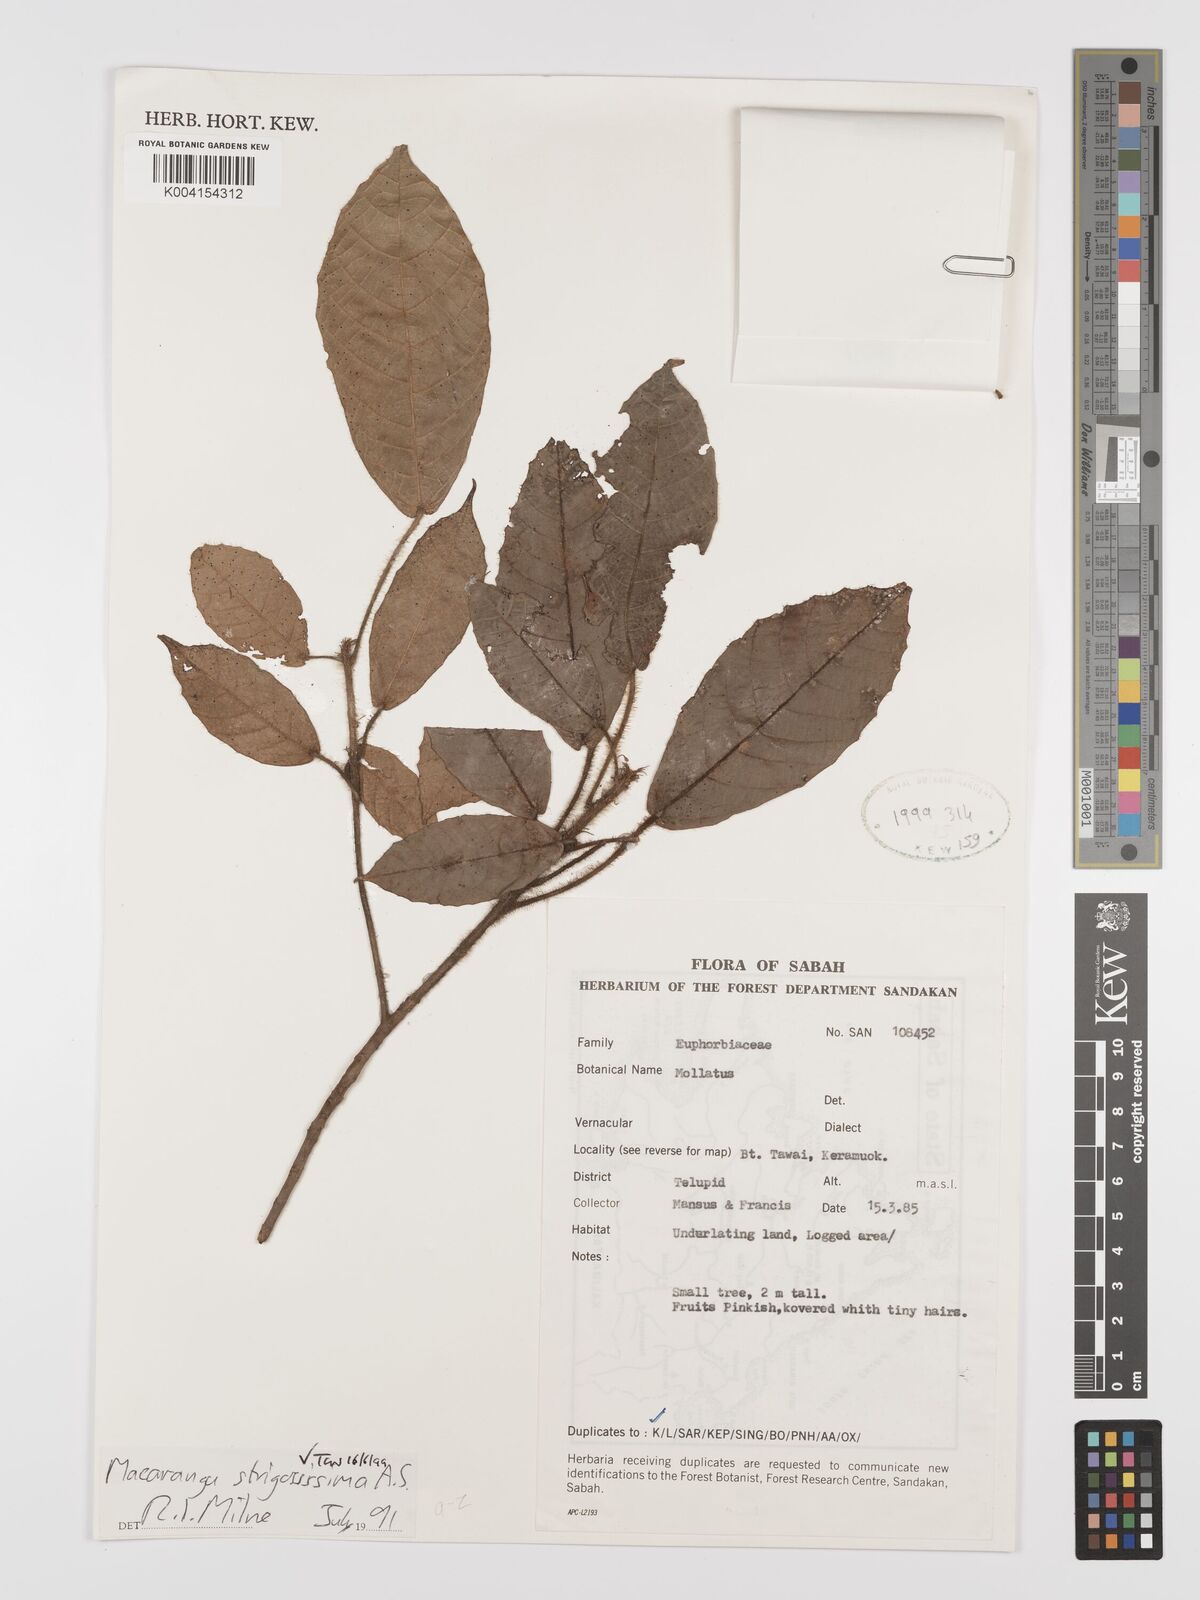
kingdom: Plantae
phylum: Tracheophyta
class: Magnoliopsida
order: Malpighiales
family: Euphorbiaceae
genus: Macaranga
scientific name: Macaranga strigosissima
